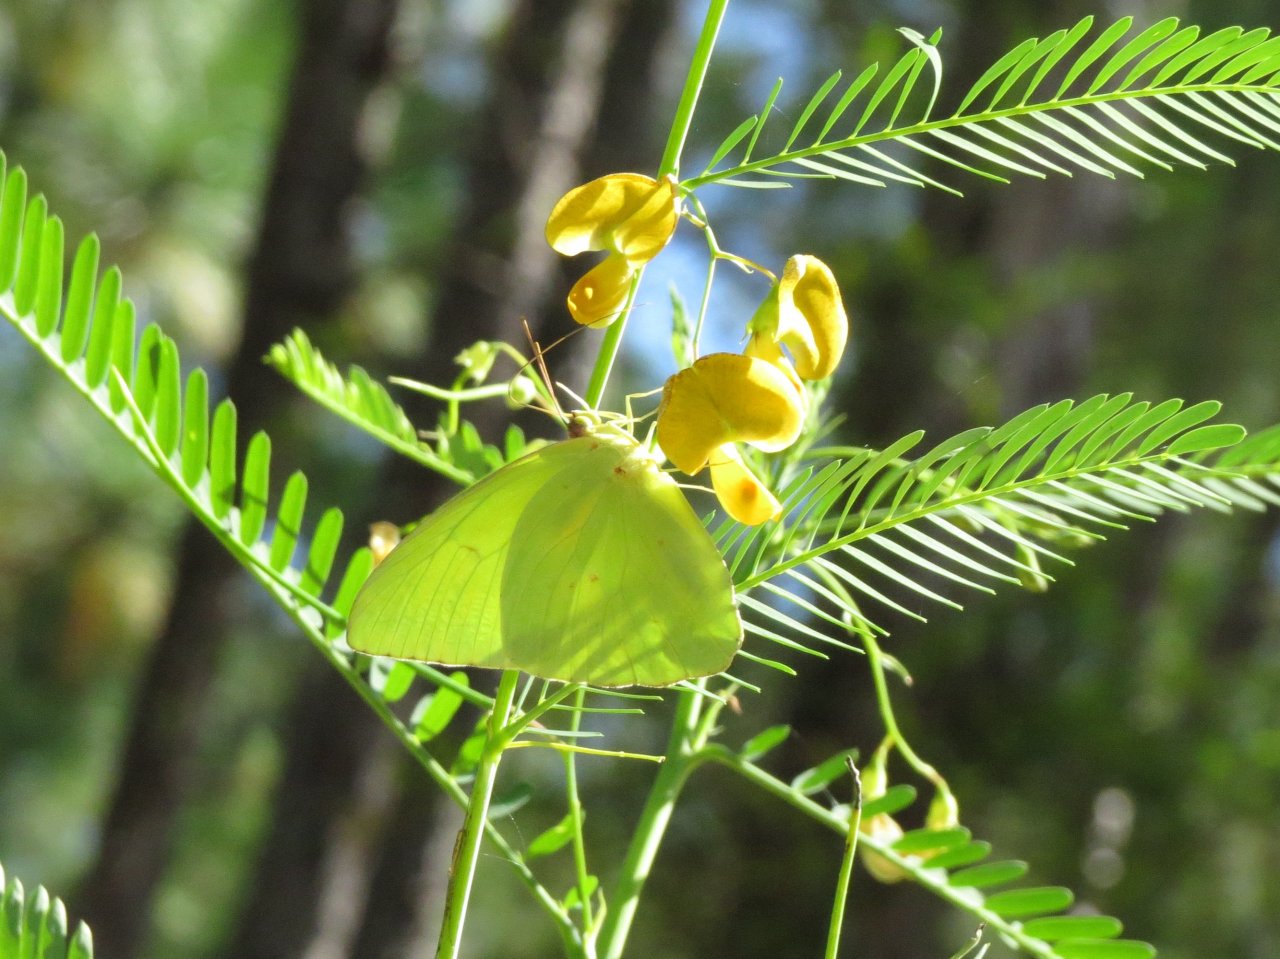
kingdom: Animalia
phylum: Arthropoda
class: Insecta
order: Lepidoptera
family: Pieridae
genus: Phoebis
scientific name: Phoebis sennae
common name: Cloudless Sulphur
